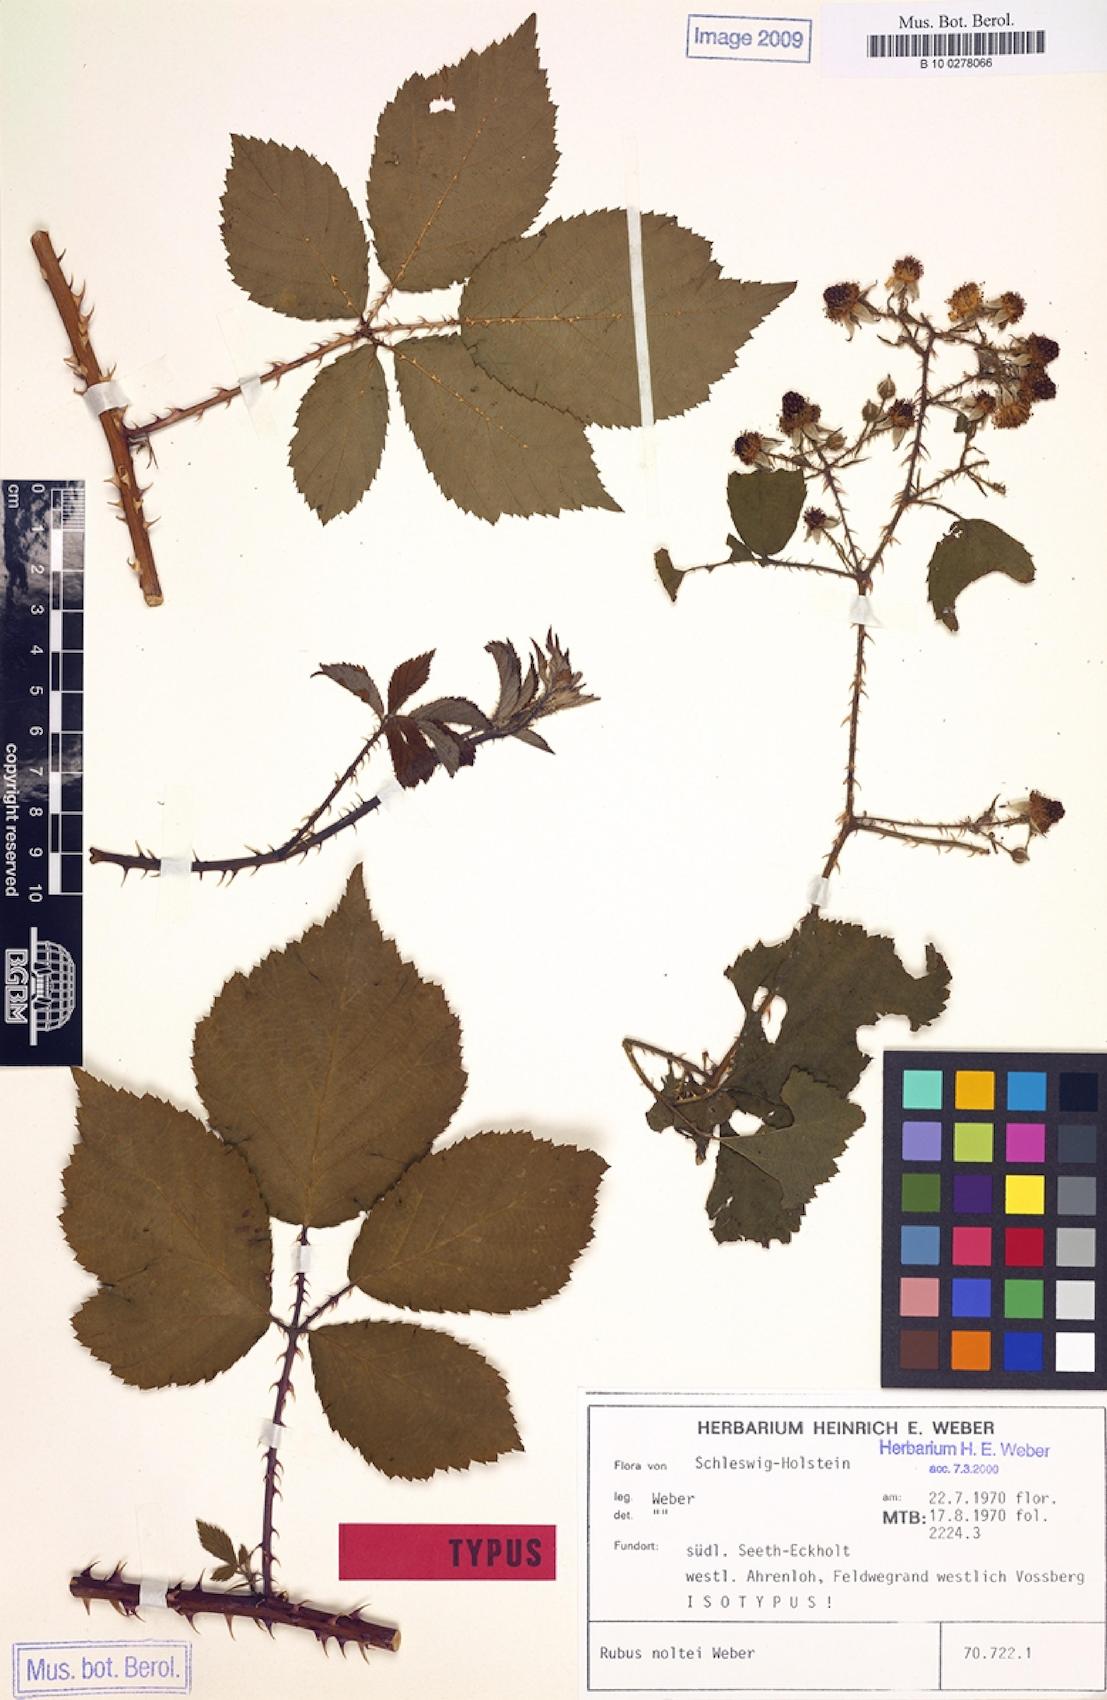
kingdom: Plantae
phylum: Tracheophyta
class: Magnoliopsida
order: Rosales
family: Rosaceae
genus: Rubus
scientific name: Rubus noltei
